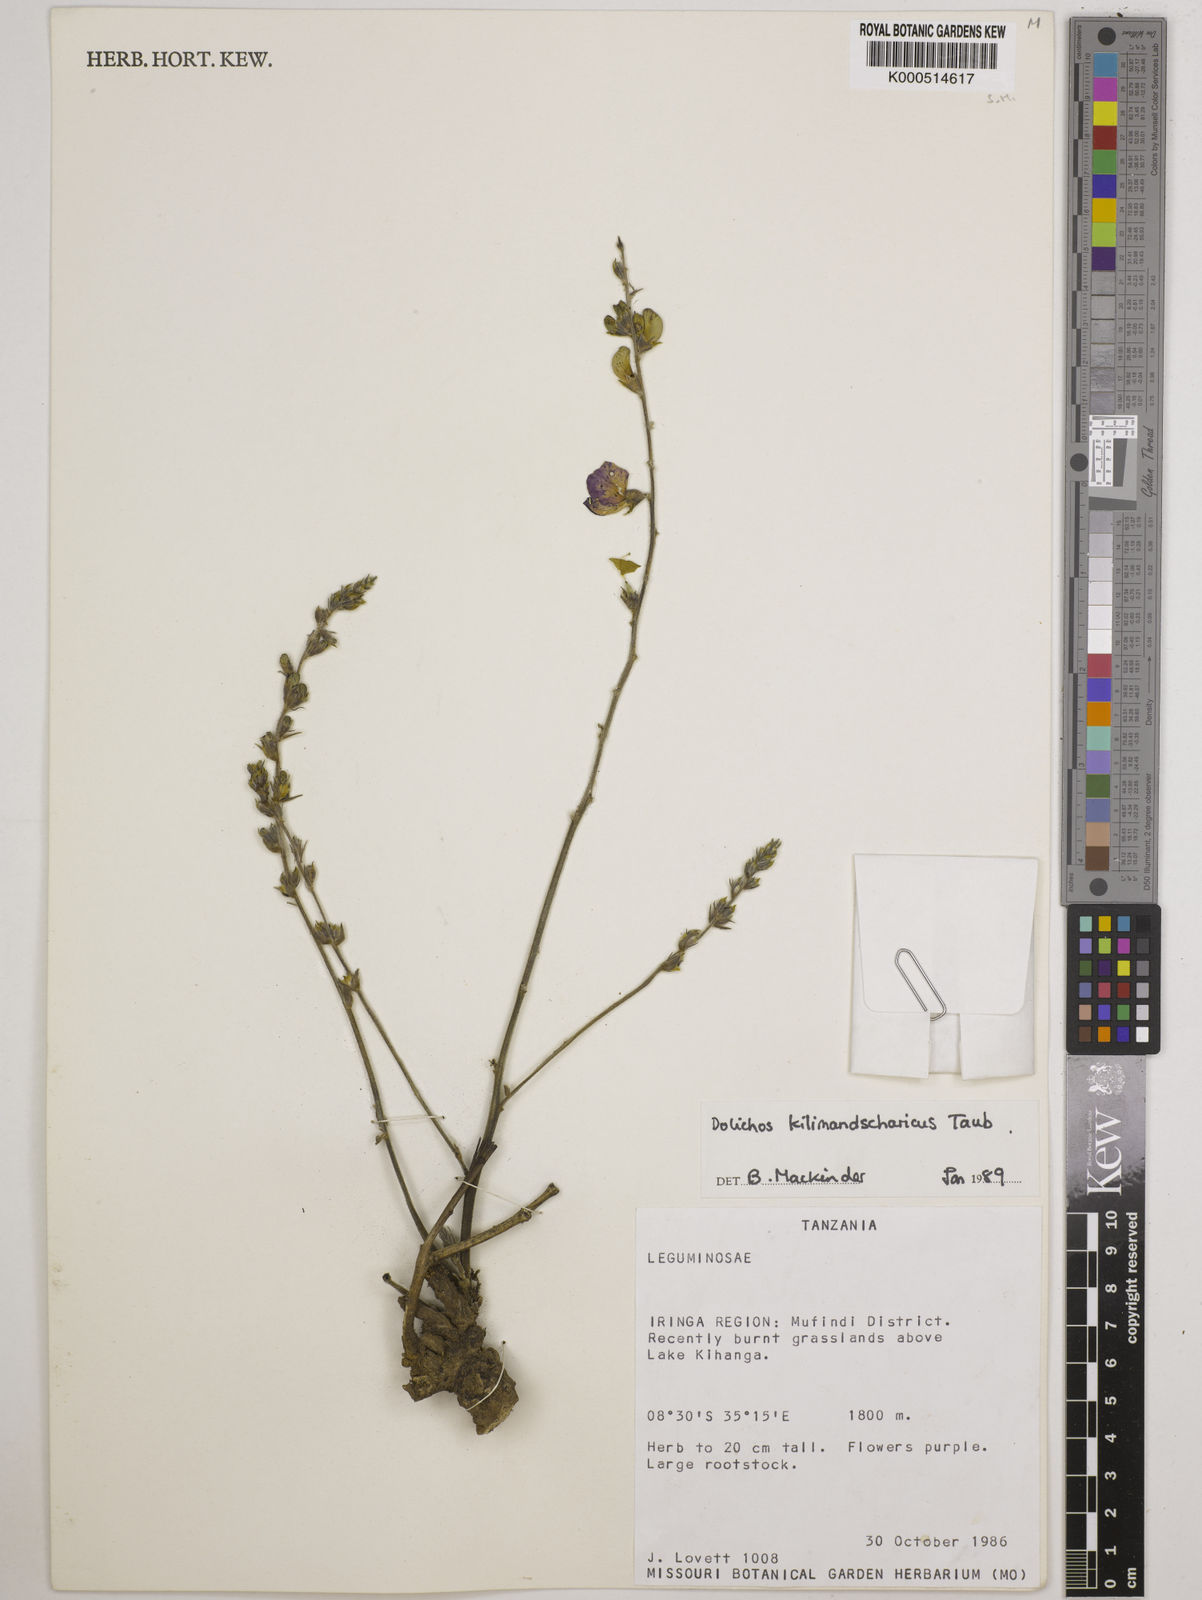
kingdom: Plantae
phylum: Tracheophyta
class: Magnoliopsida
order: Fabales
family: Fabaceae
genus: Dolichos
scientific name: Dolichos kilimandscharicus
